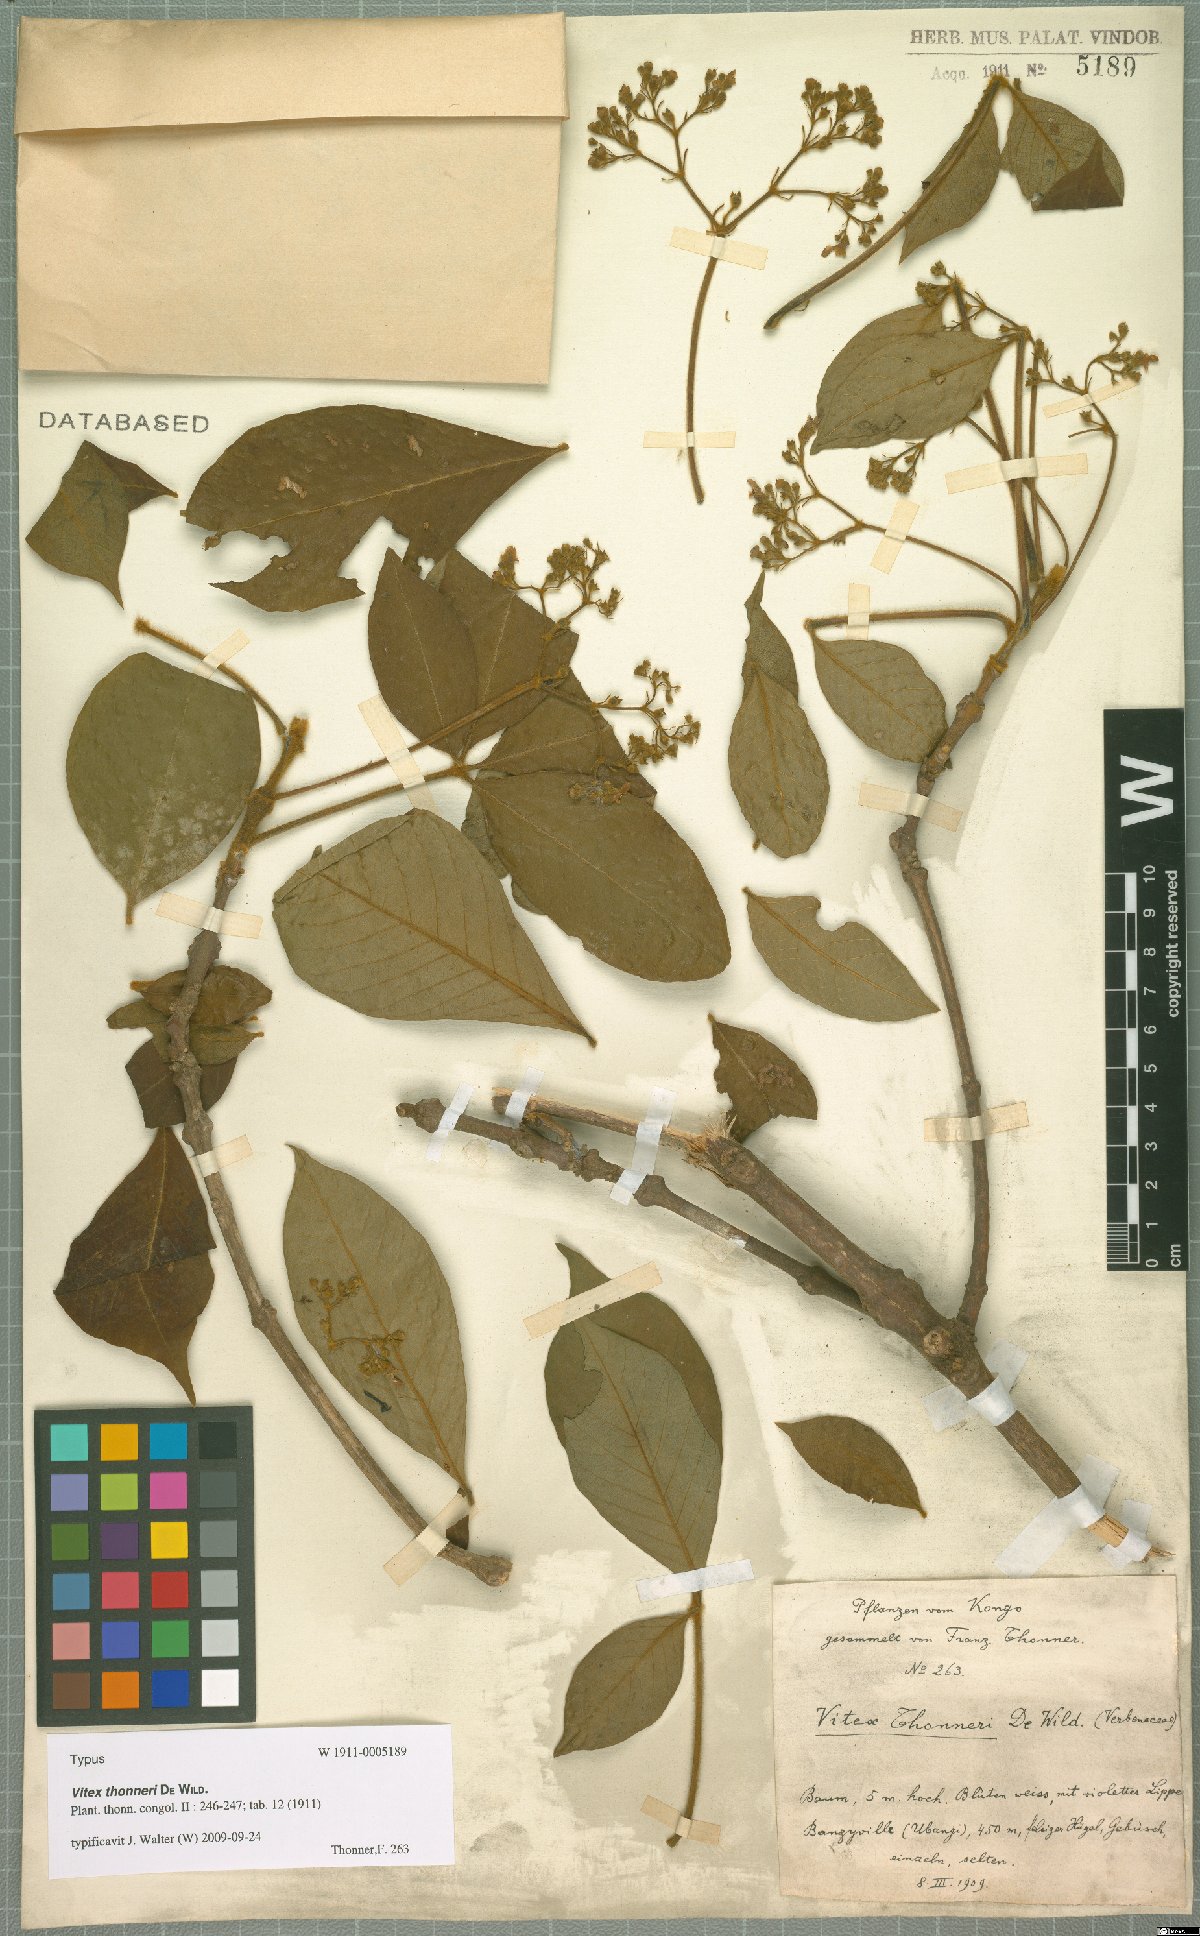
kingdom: Plantae
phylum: Tracheophyta
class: Magnoliopsida
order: Lamiales
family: Lamiaceae
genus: Vitex
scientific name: Vitex congolensis
